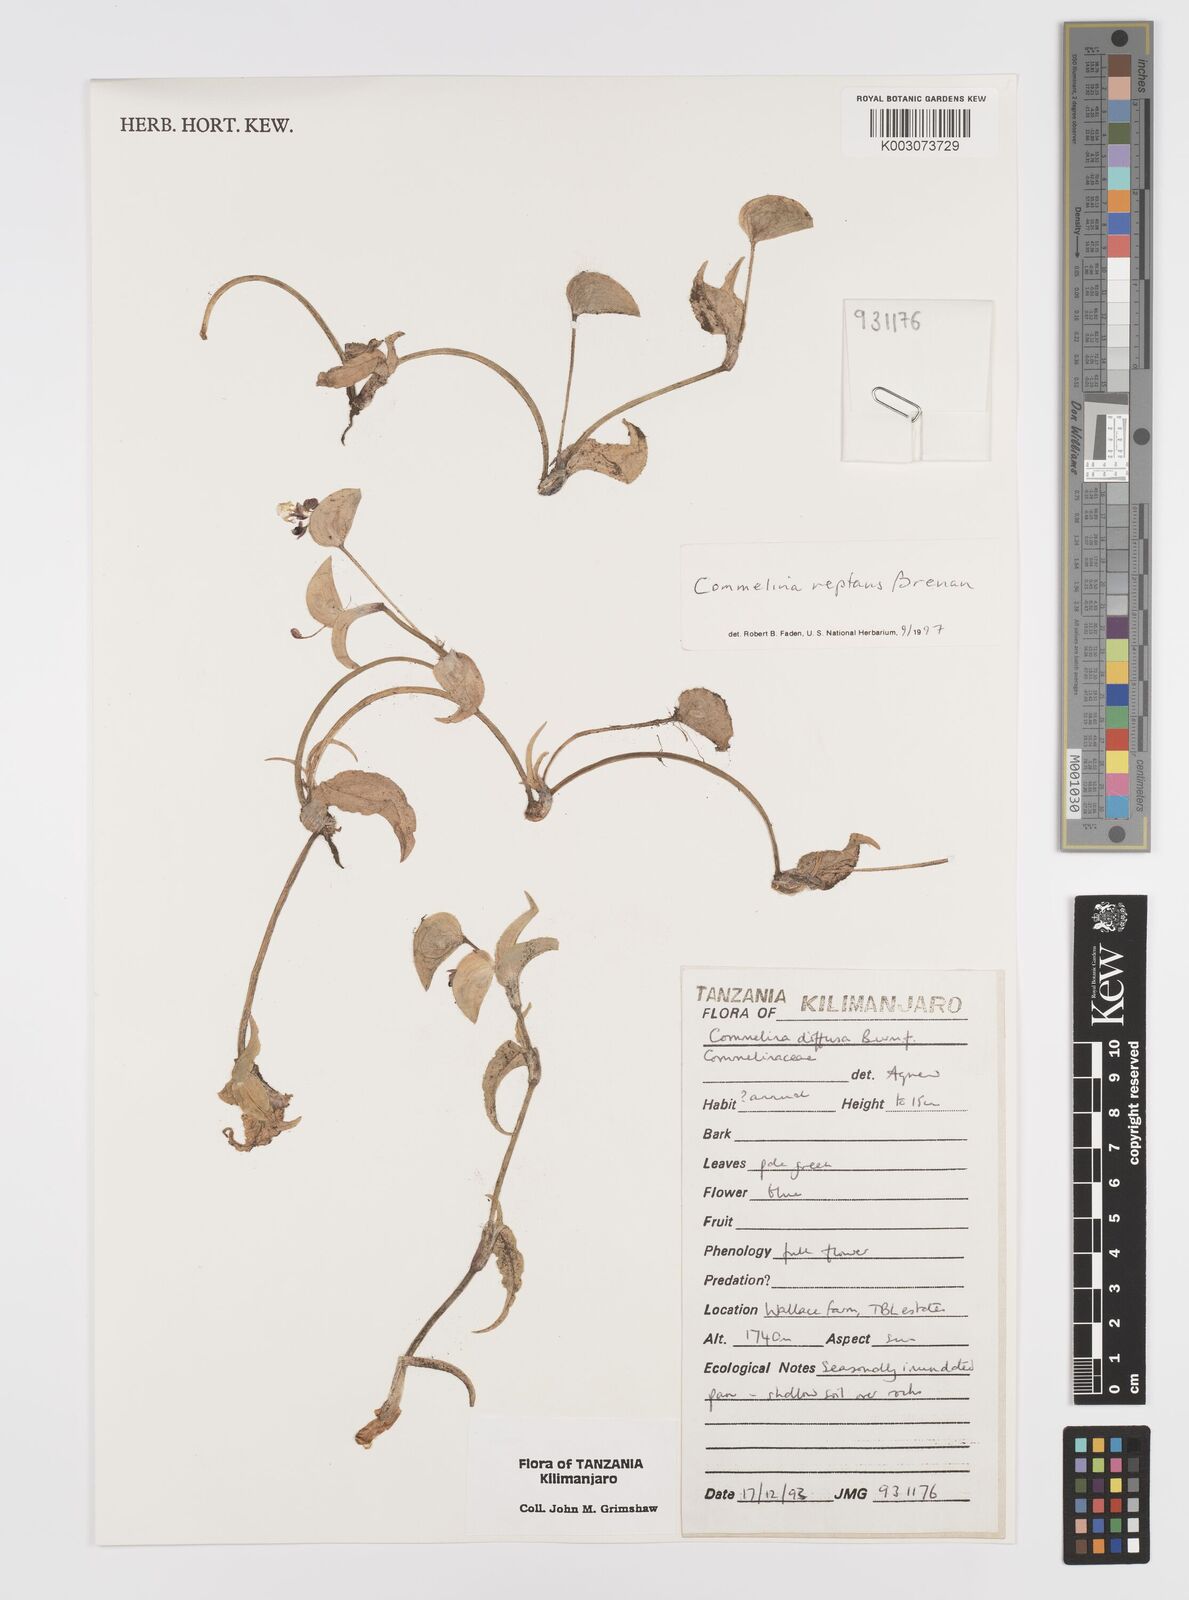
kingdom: Plantae
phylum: Tracheophyta
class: Liliopsida
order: Commelinales
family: Commelinaceae
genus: Commelina
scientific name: Commelina reptans
